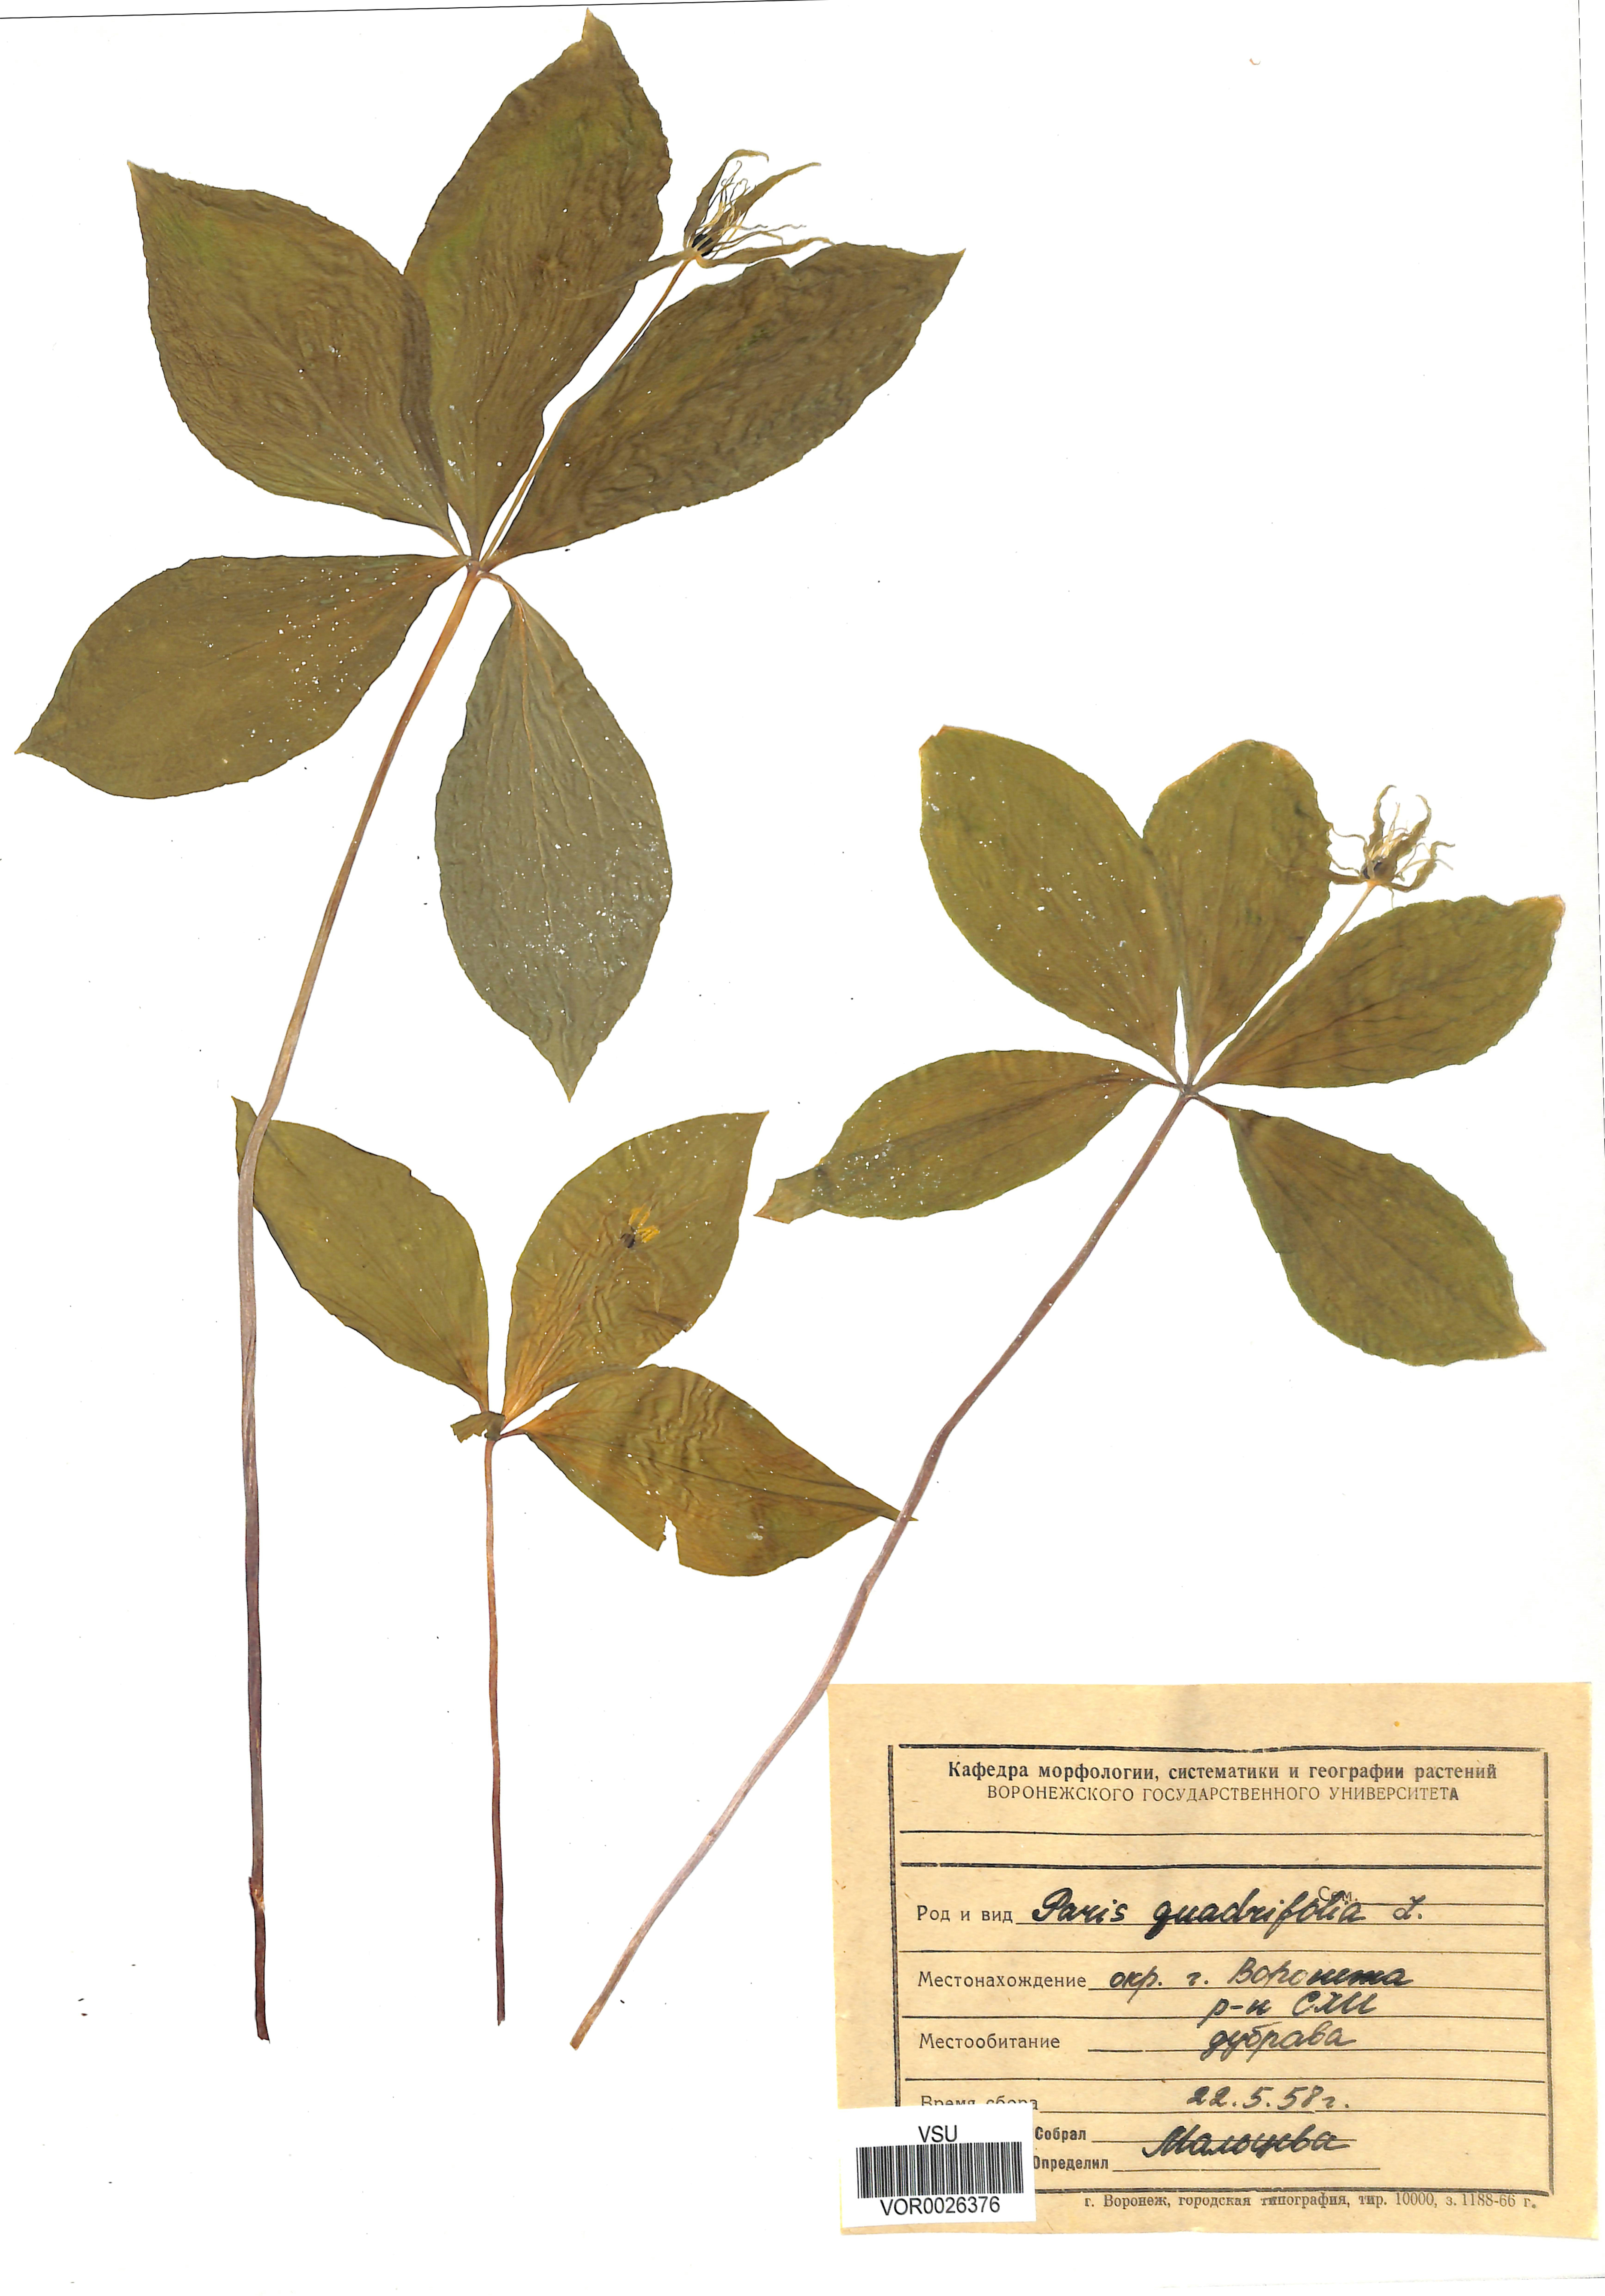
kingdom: Plantae
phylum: Tracheophyta
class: Liliopsida
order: Liliales
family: Melanthiaceae
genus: Paris
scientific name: Paris quadrifolia
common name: Herb-paris
